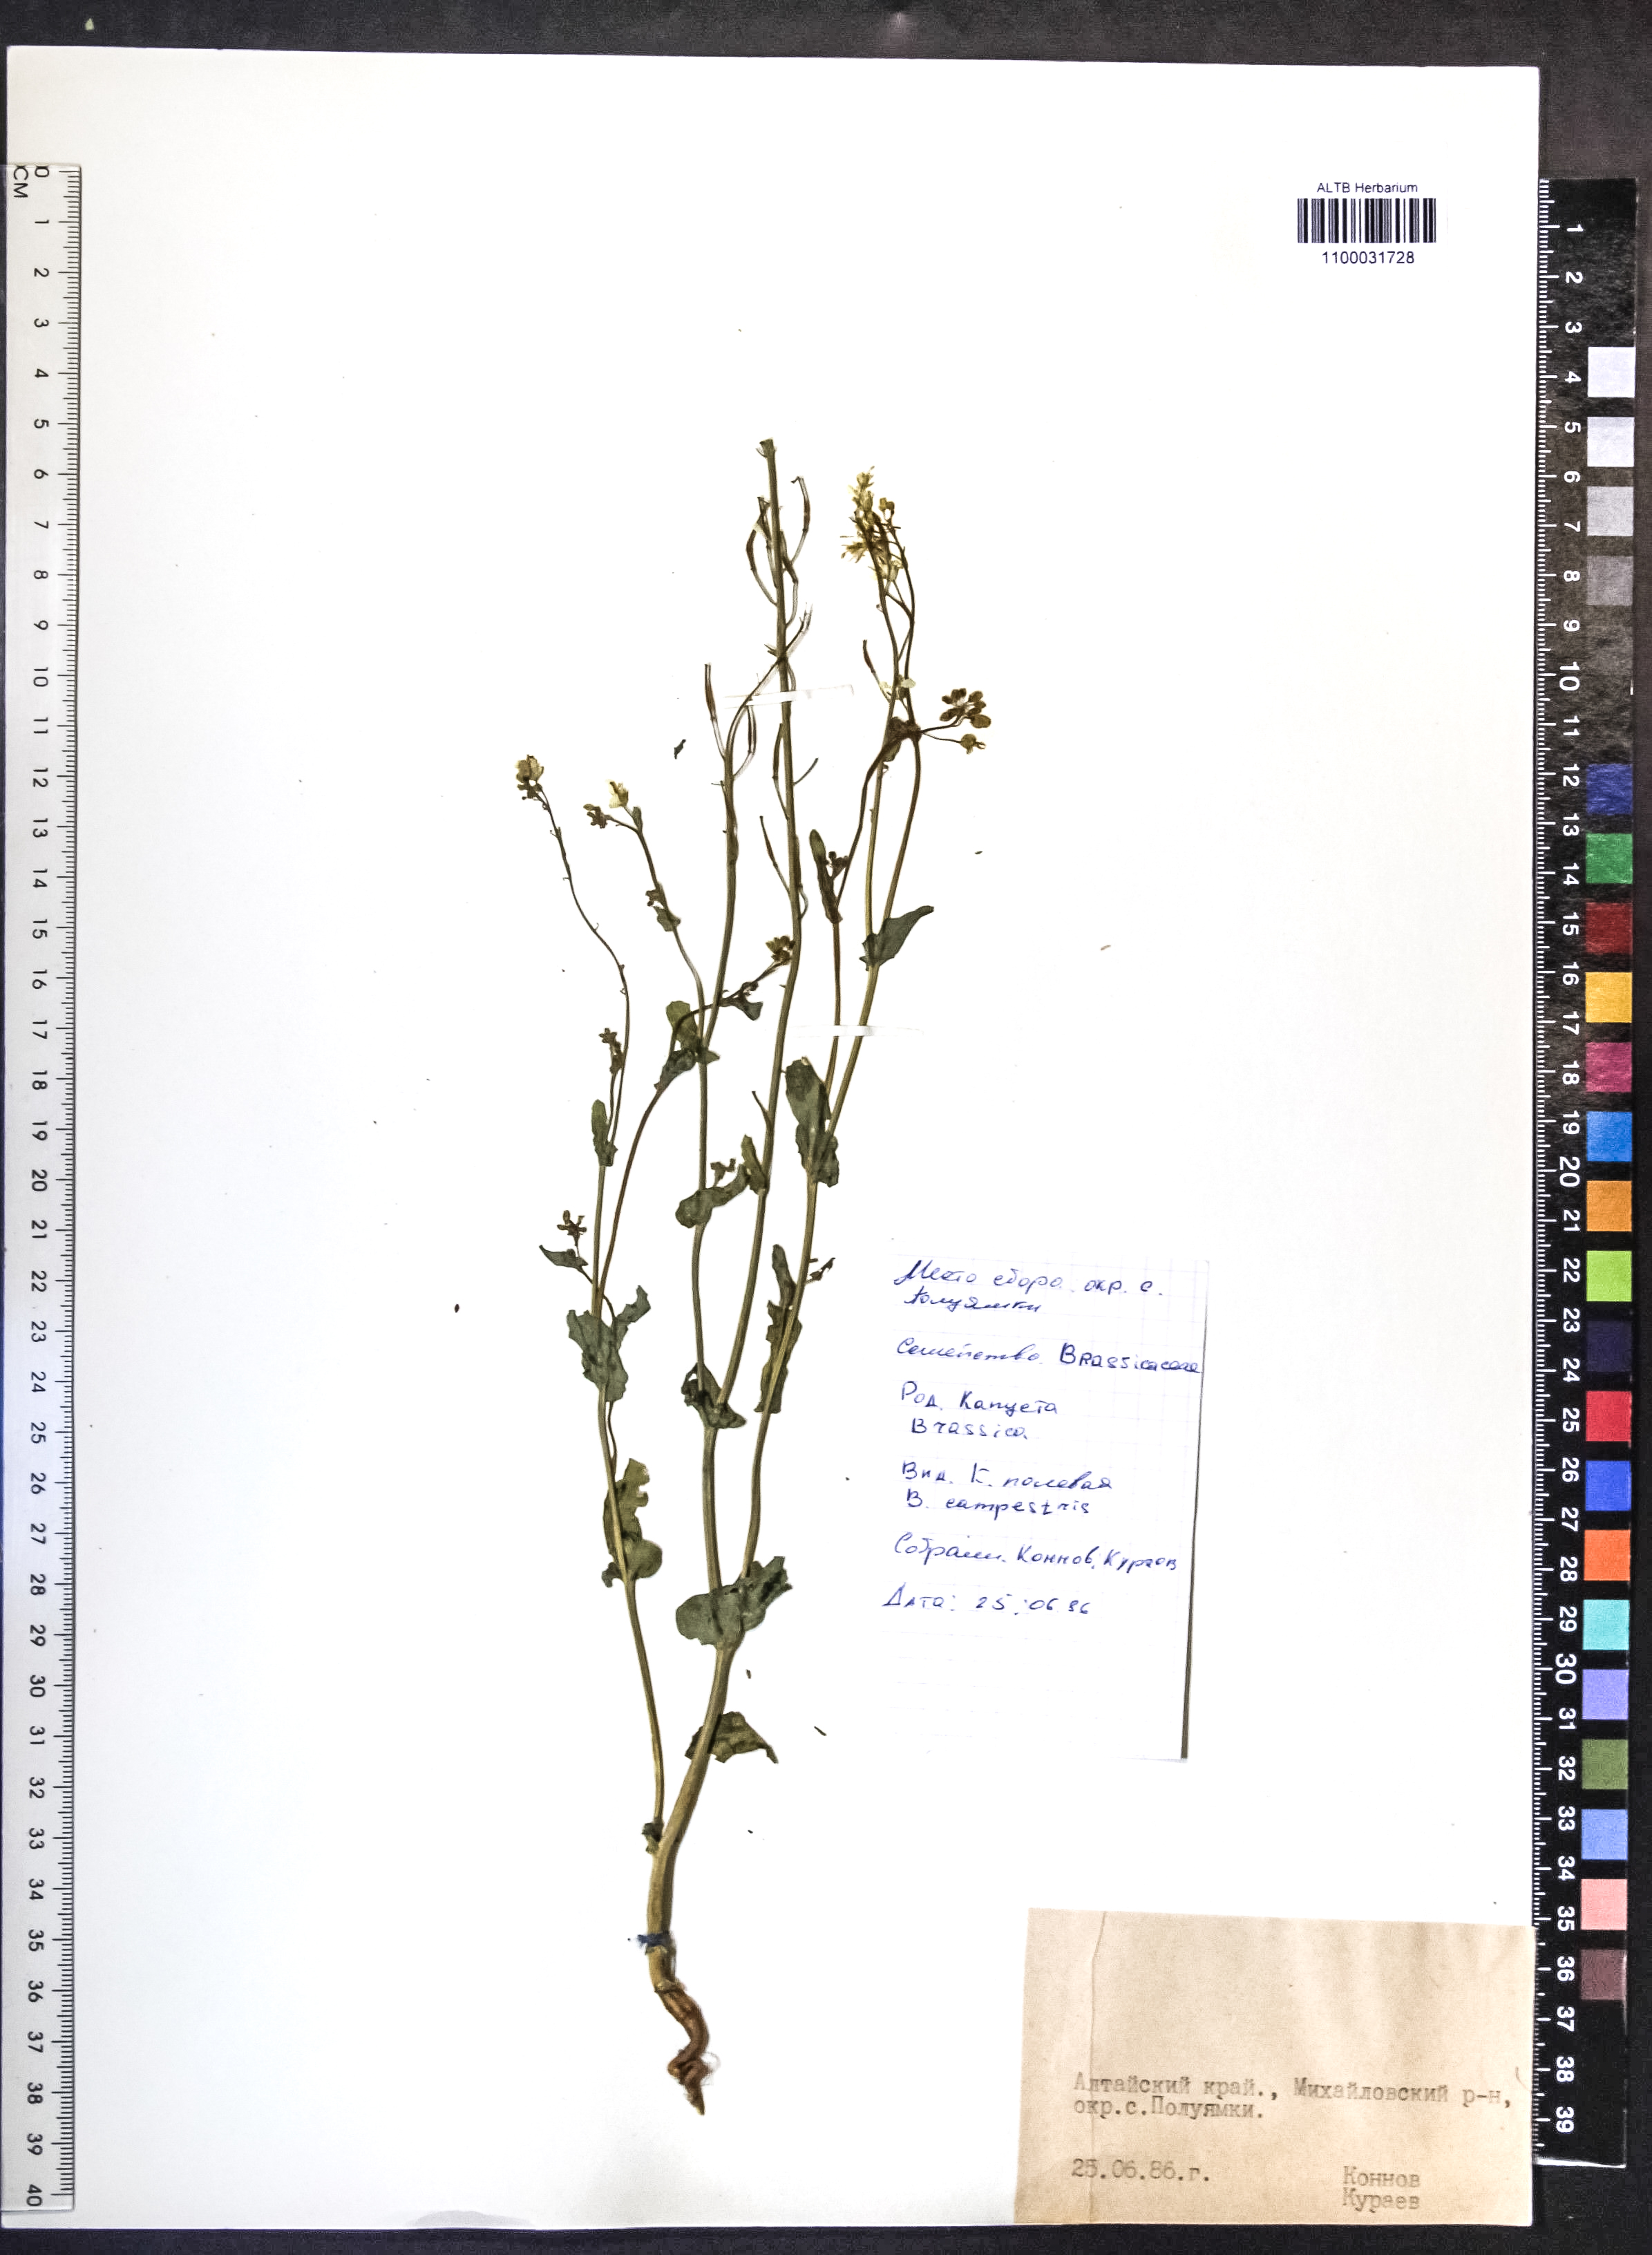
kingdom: Plantae
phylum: Tracheophyta
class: Magnoliopsida
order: Brassicales
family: Brassicaceae
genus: Brassica
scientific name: Brassica rapa
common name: Field mustard
